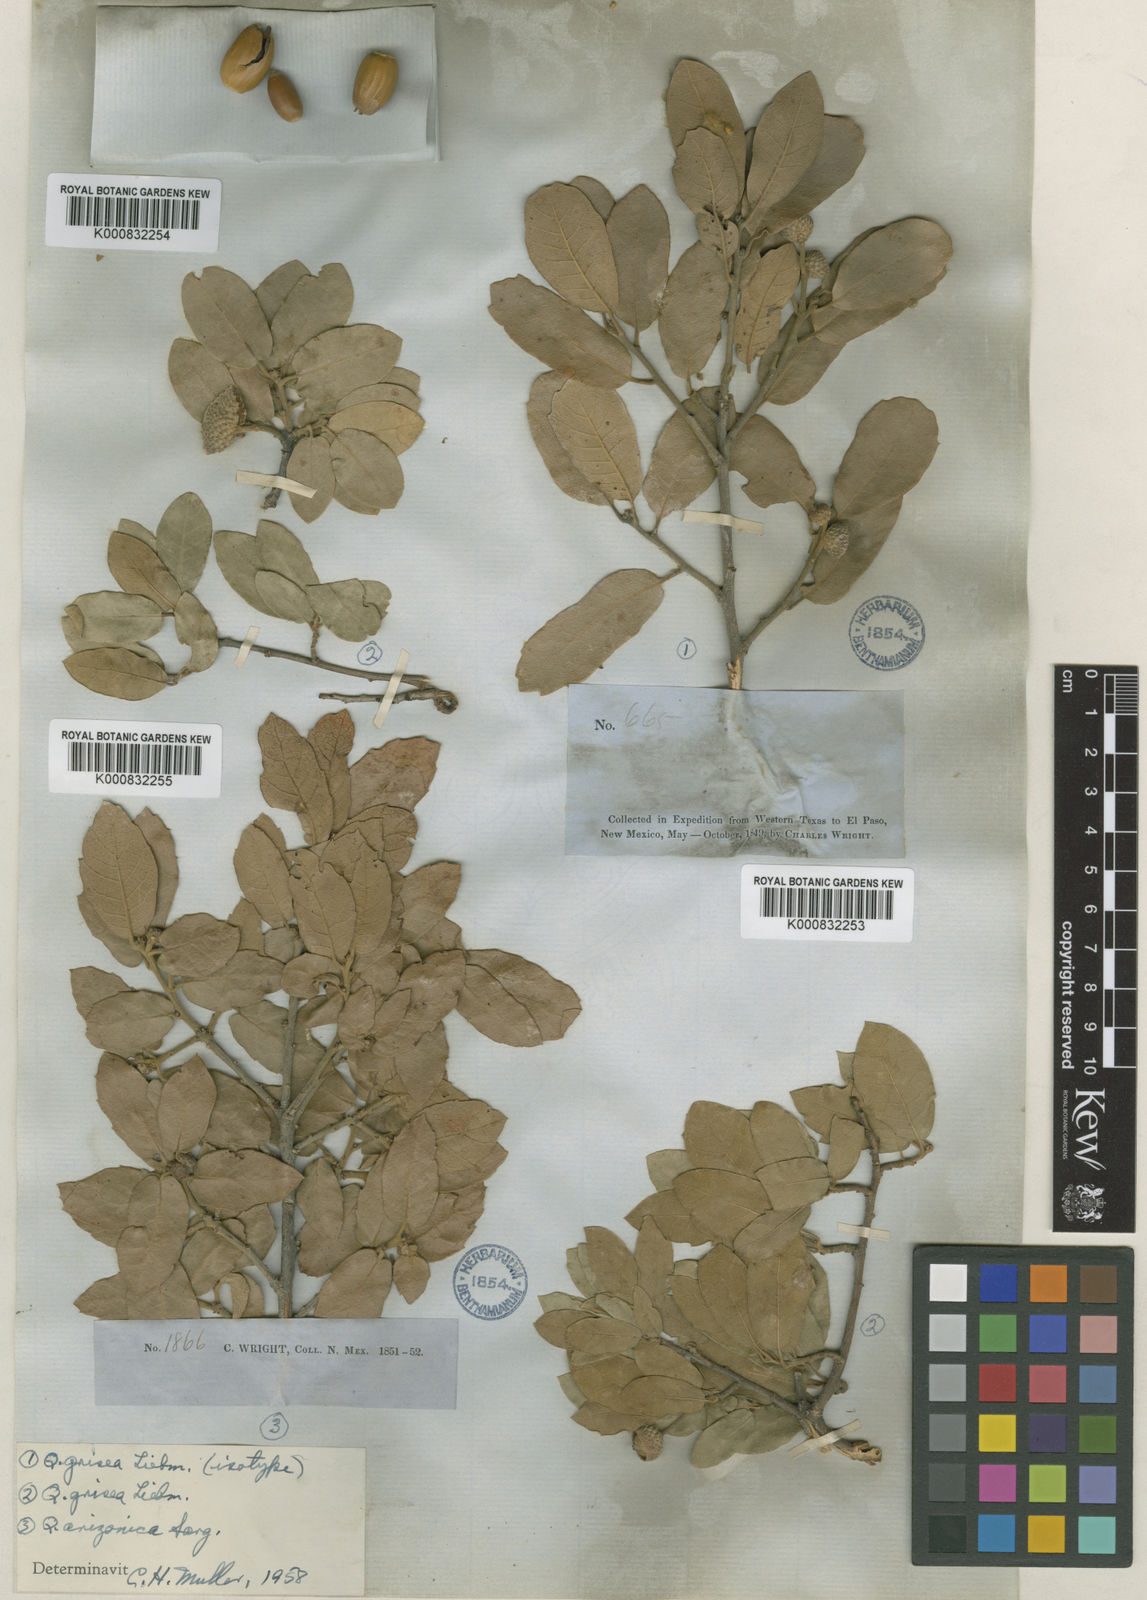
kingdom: Plantae
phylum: Tracheophyta
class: Magnoliopsida
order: Fagales
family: Fagaceae
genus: Quercus
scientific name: Quercus grisea
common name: Gray oak
